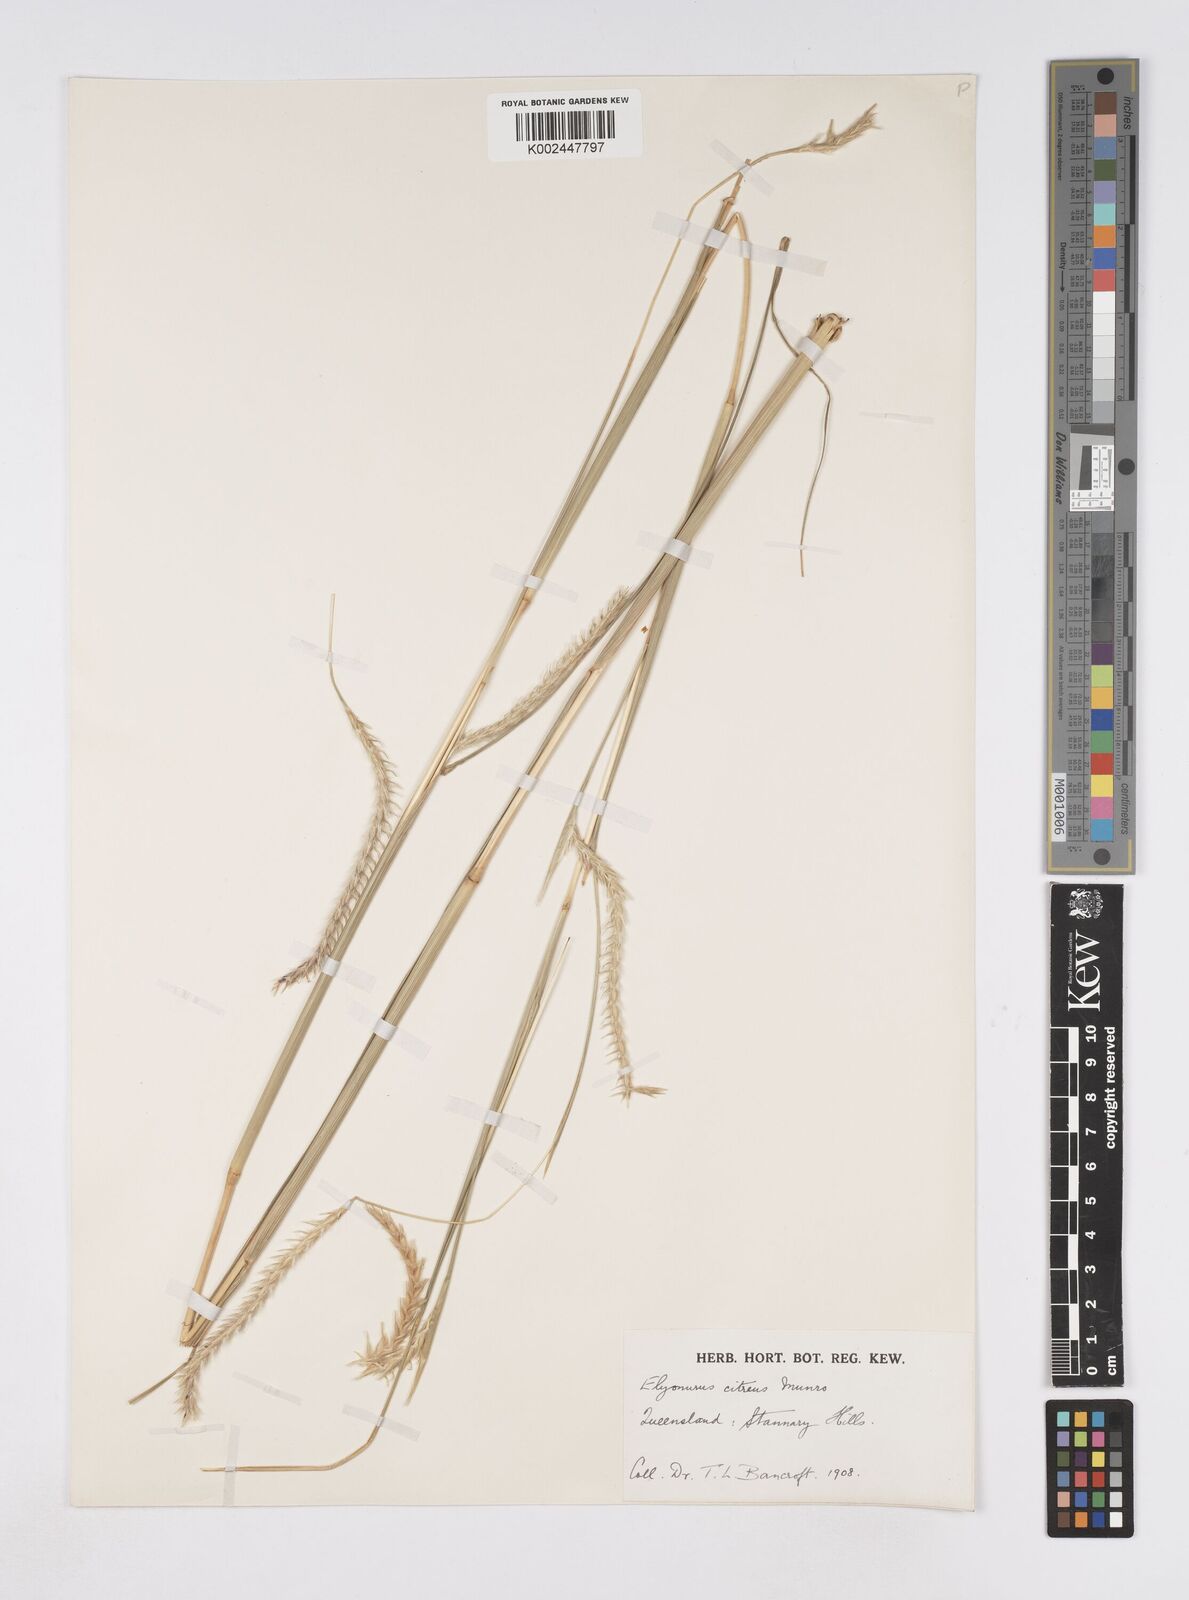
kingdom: Plantae
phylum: Tracheophyta
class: Liliopsida
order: Poales
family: Poaceae
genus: Elionurus
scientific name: Elionurus citreus
